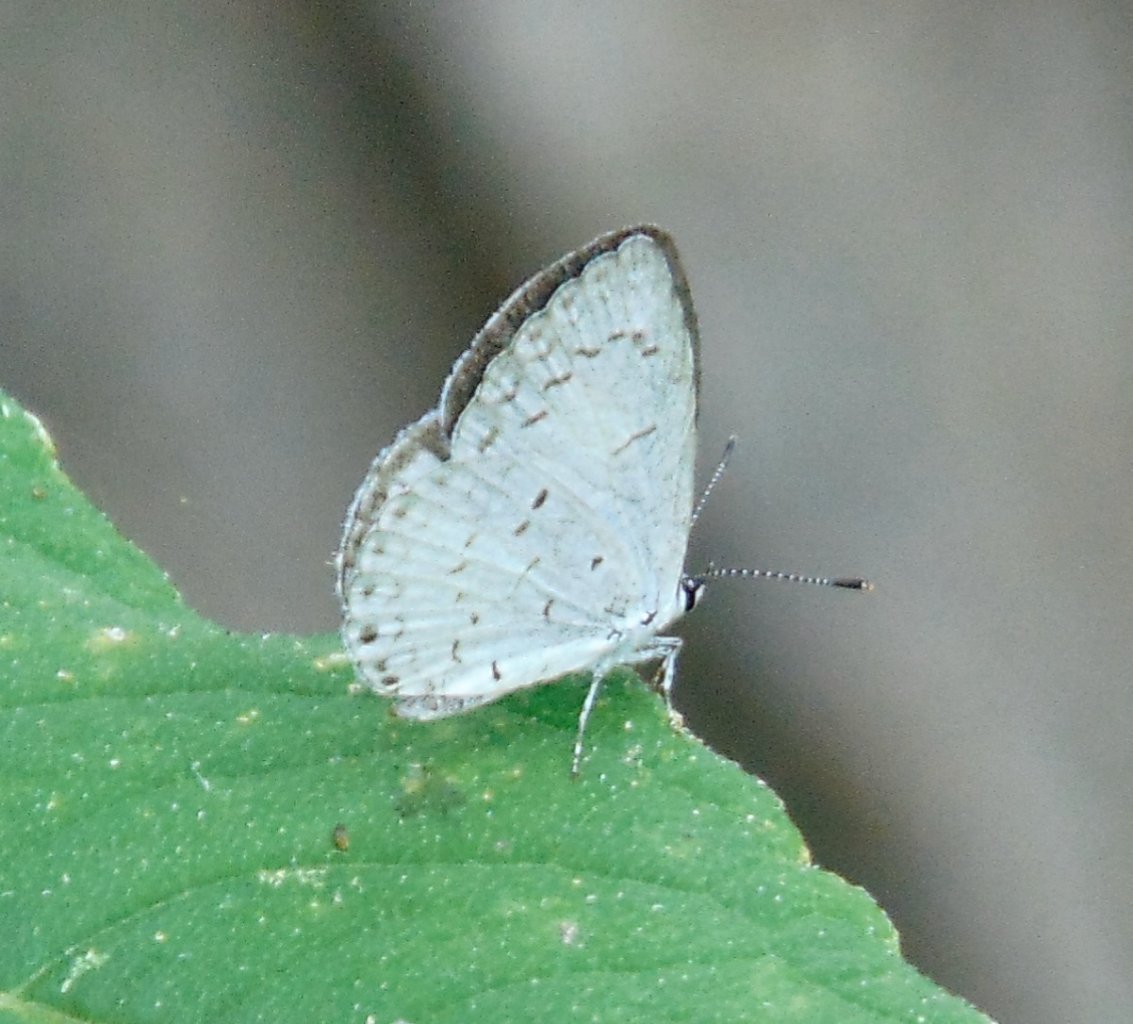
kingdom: Animalia
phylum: Arthropoda
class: Insecta
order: Lepidoptera
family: Lycaenidae
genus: Cyaniris
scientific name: Cyaniris neglecta
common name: Summer Azure
